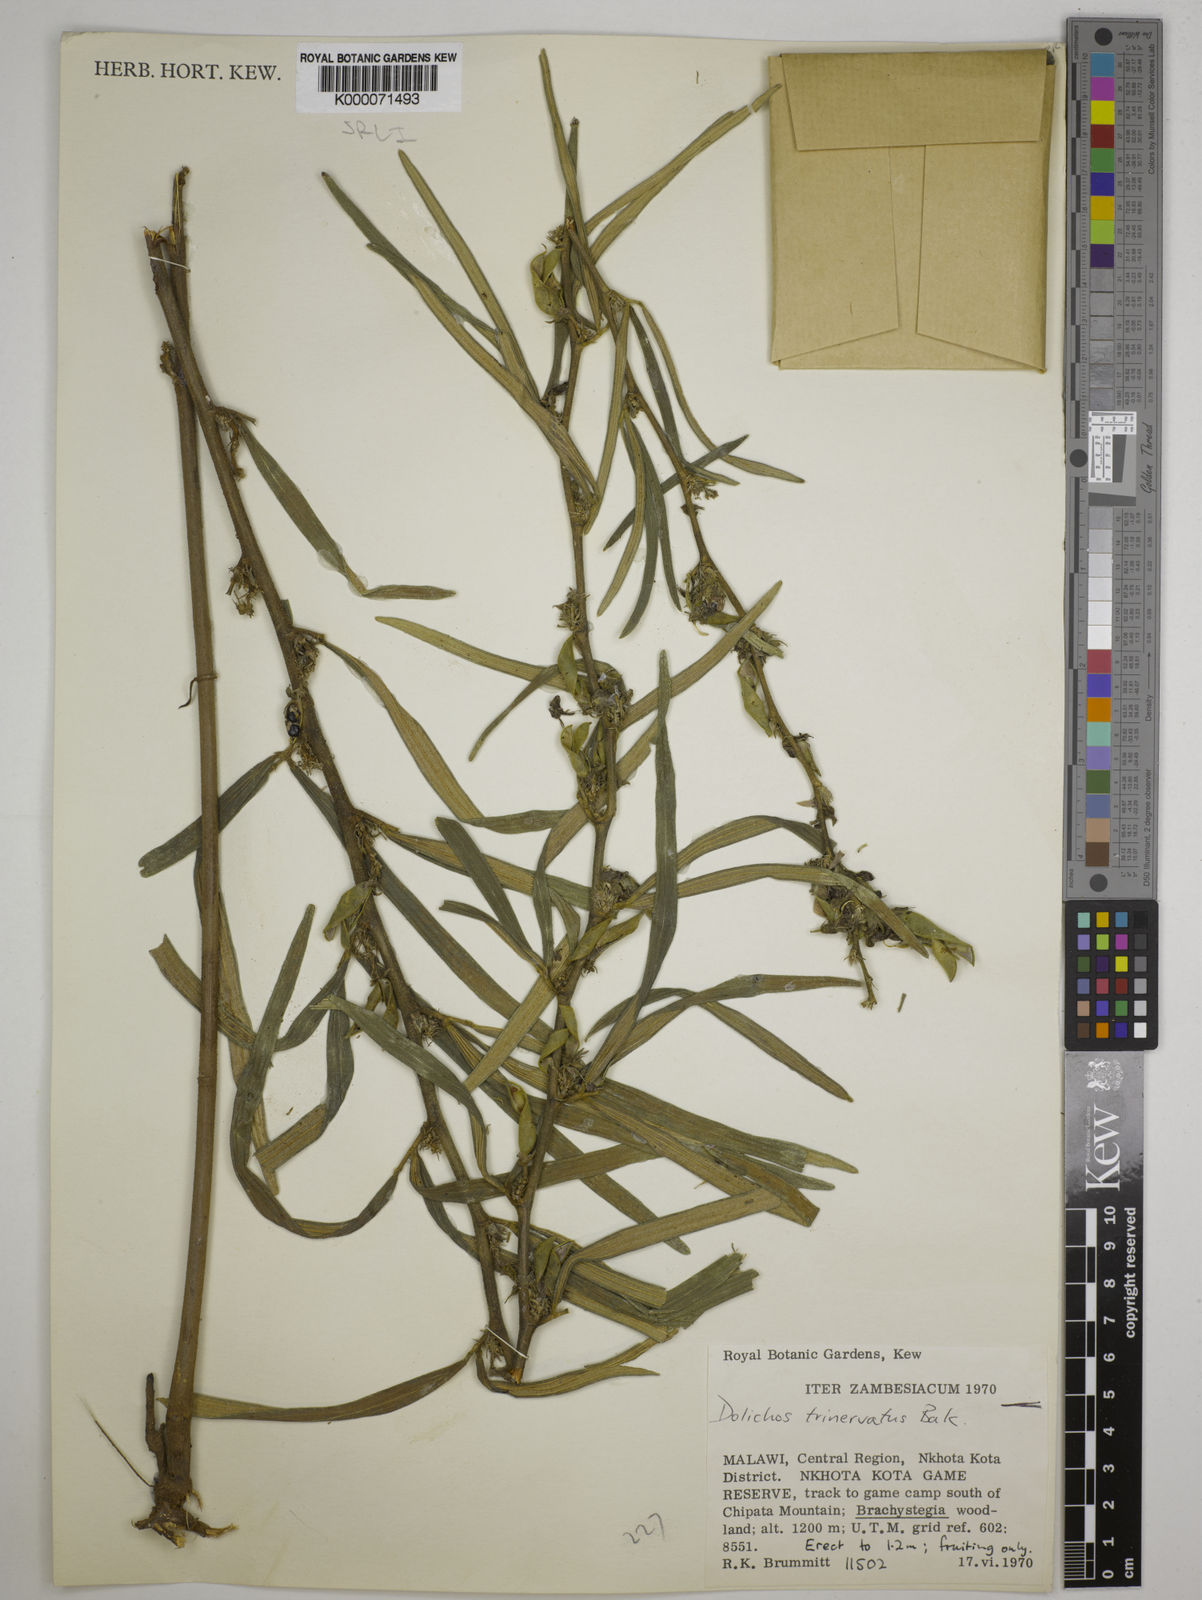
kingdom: Plantae
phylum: Tracheophyta
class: Magnoliopsida
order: Fabales
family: Fabaceae
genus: Dolichos
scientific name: Dolichos trinervatus
